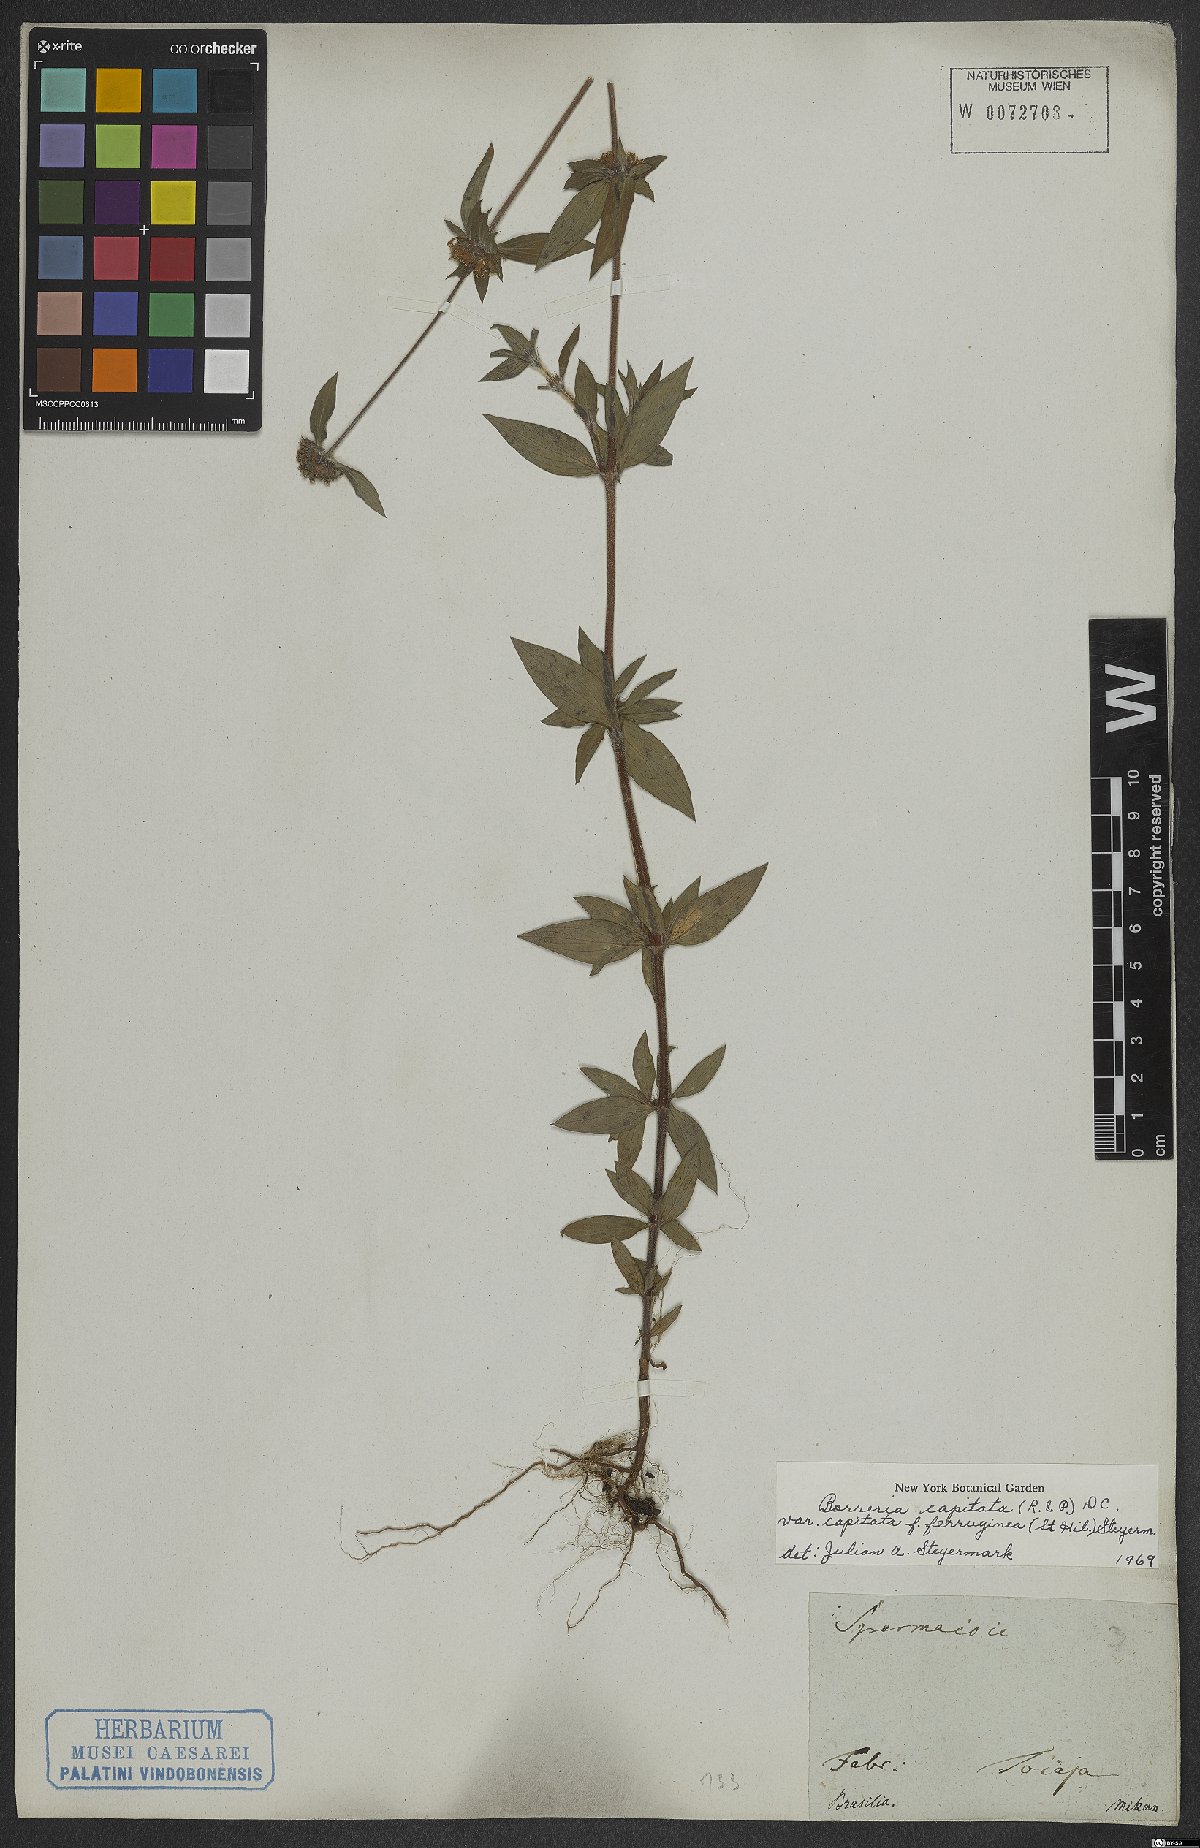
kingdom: Plantae
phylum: Tracheophyta
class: Magnoliopsida
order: Gentianales
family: Rubiaceae
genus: Spermacoce
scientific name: Spermacoce capitata
